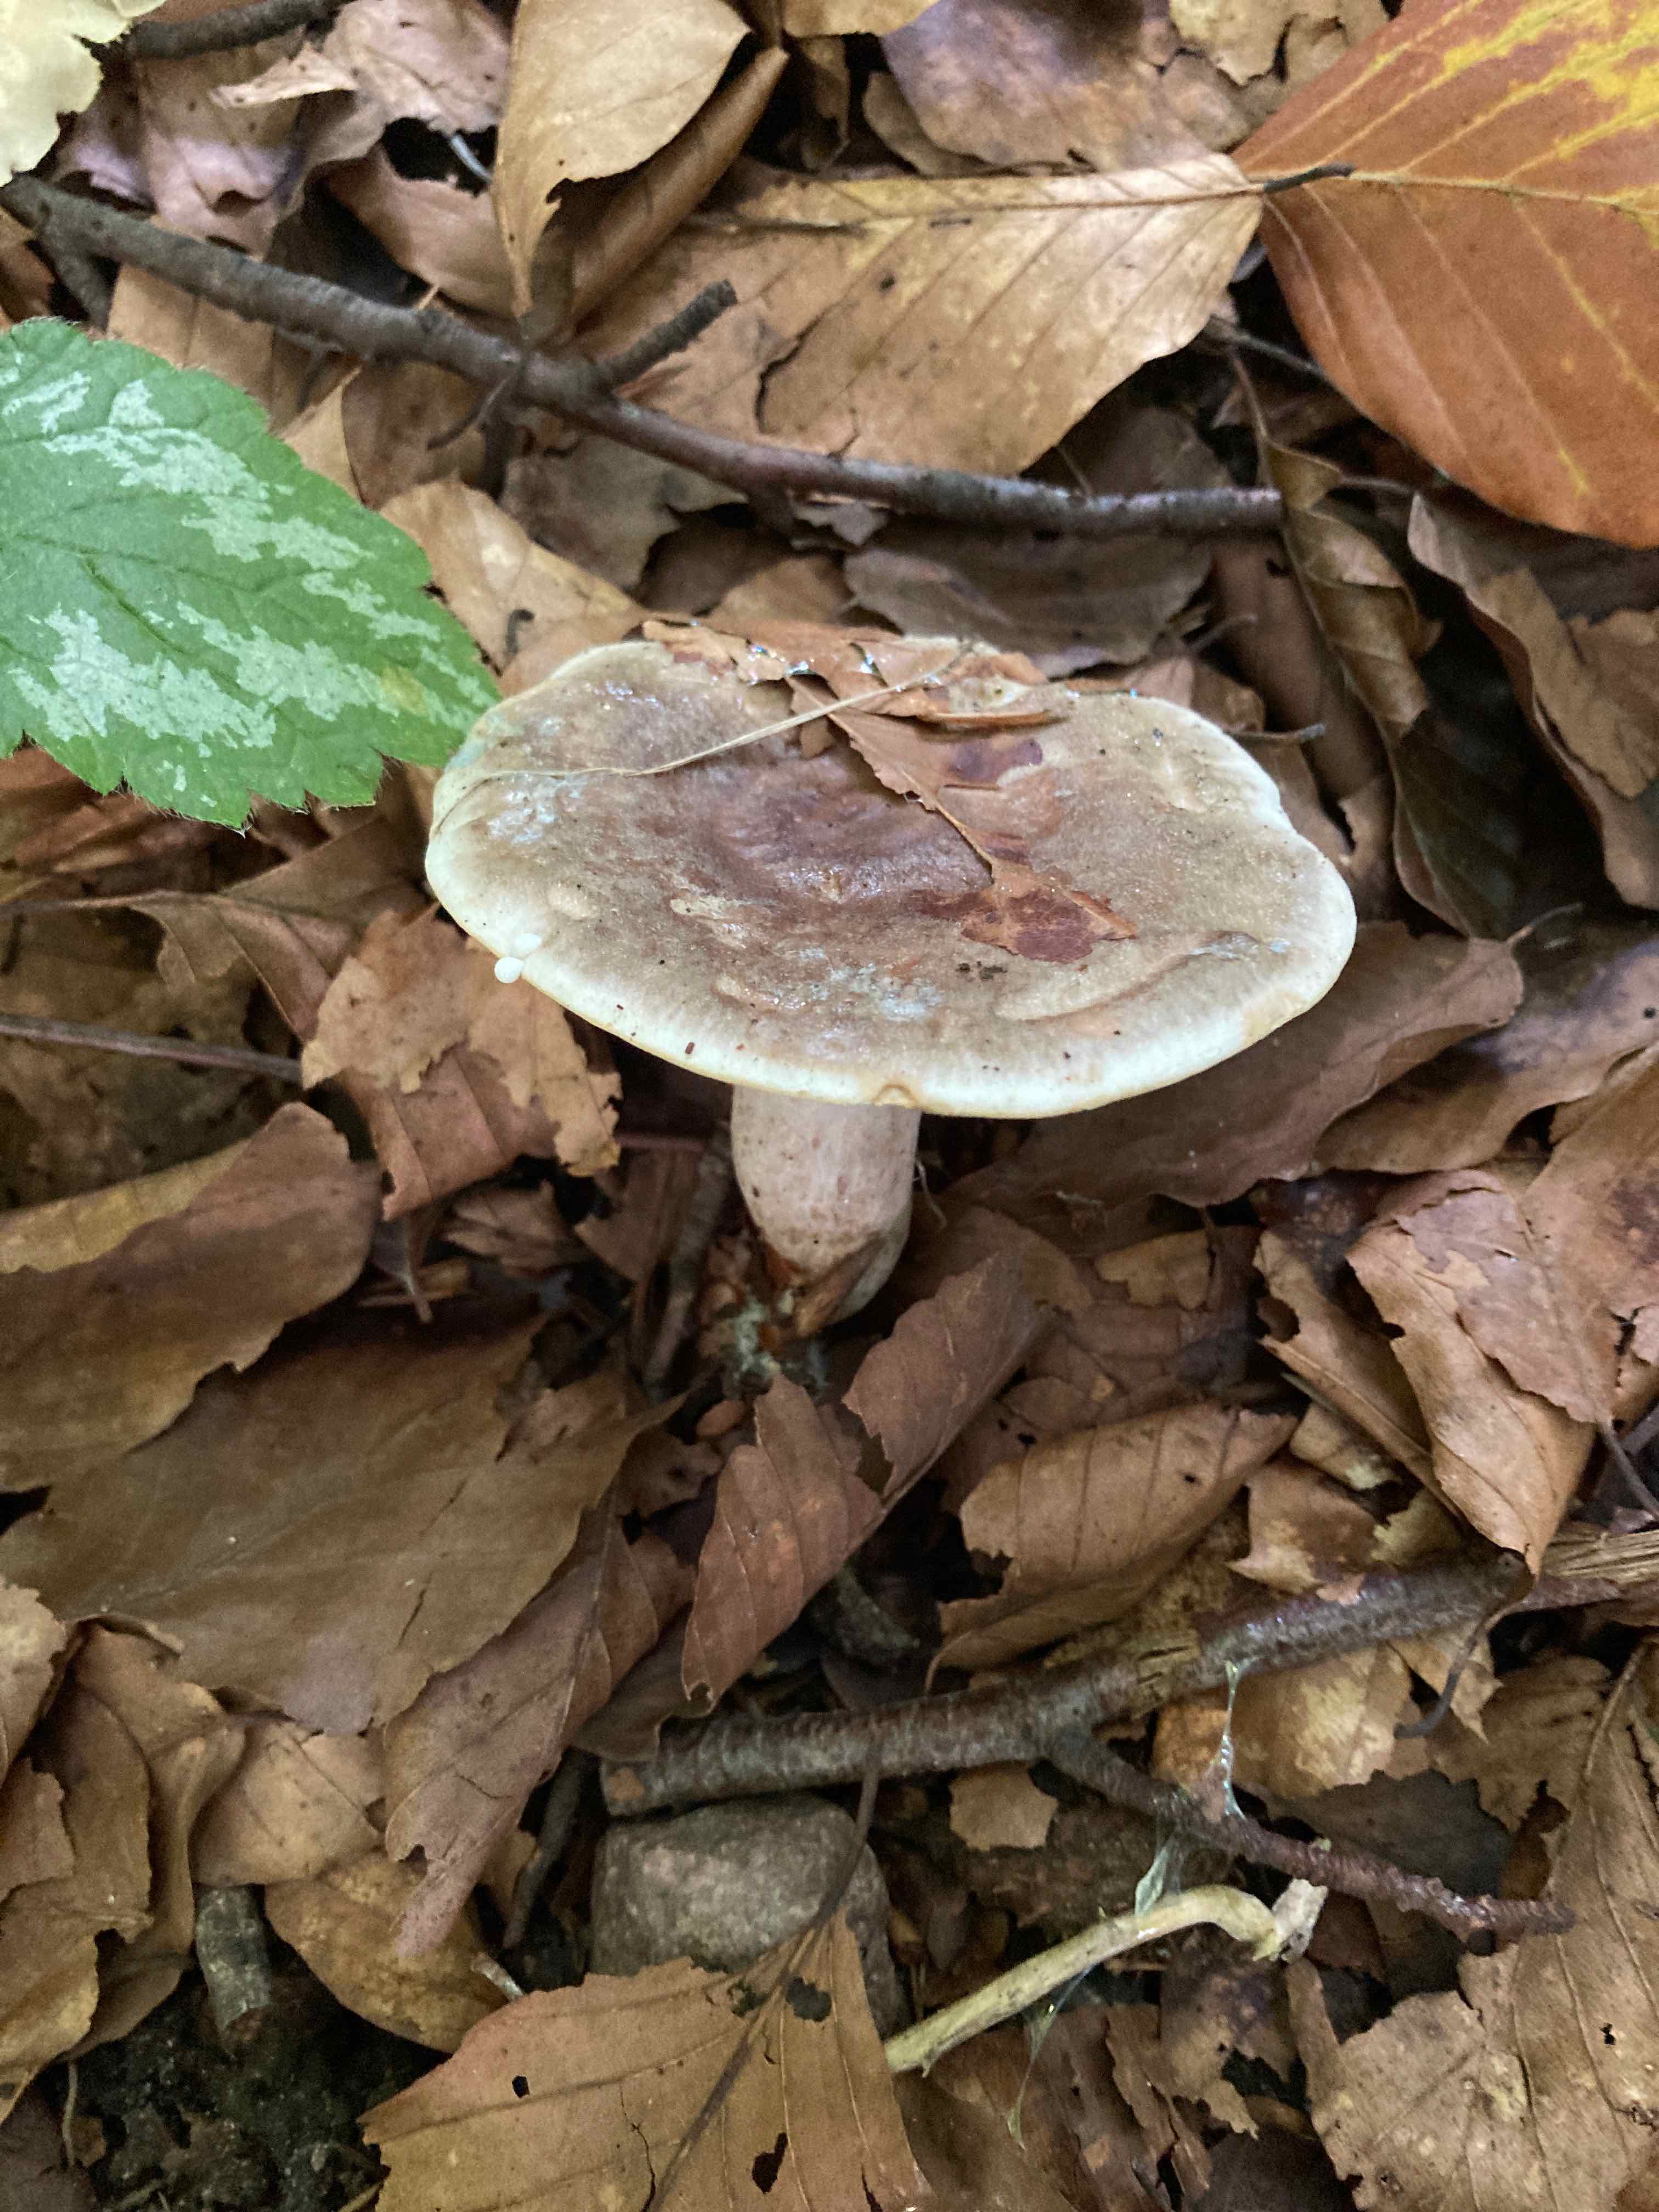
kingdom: Fungi
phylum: Basidiomycota
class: Agaricomycetes
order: Russulales
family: Russulaceae
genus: Lactarius
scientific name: Lactarius fluens
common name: lysrandet mælkehat
